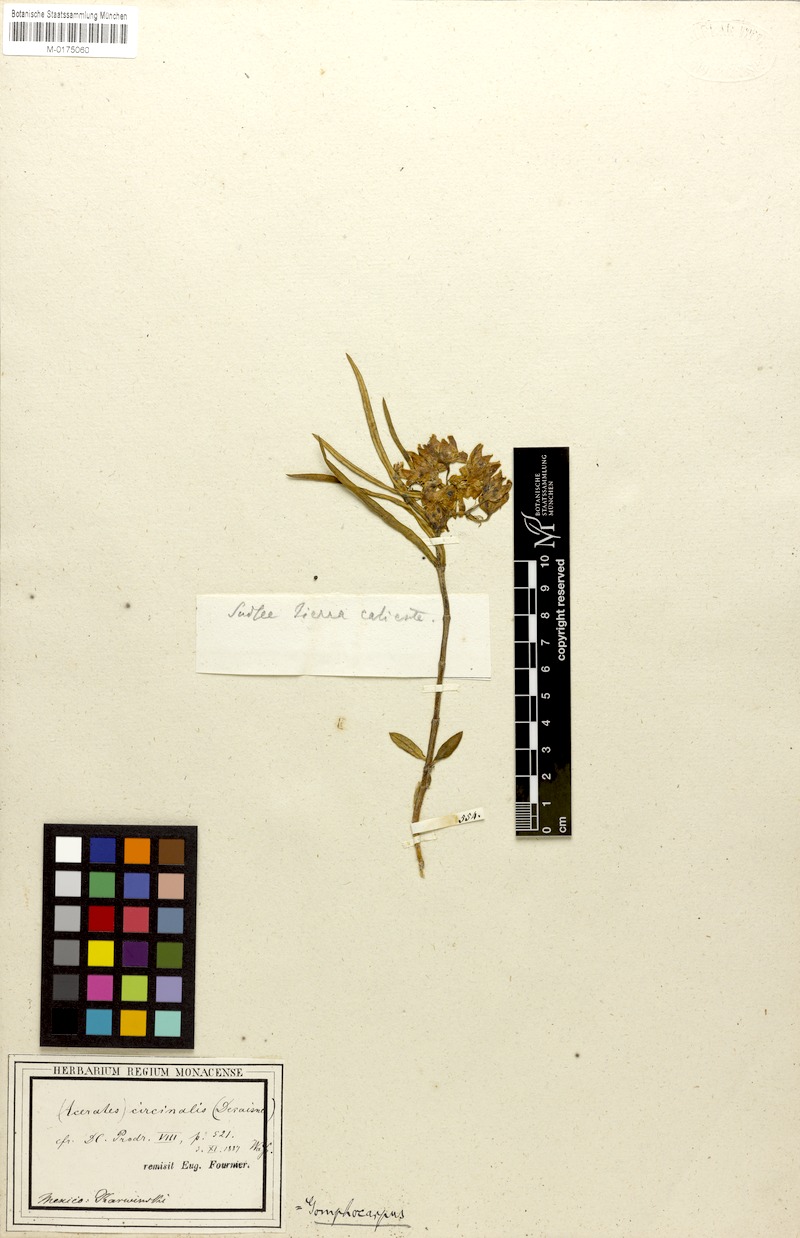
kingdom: Plantae
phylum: Tracheophyta
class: Magnoliopsida
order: Gentianales
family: Apocynaceae
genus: Asclepias
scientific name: Asclepias circinalis
